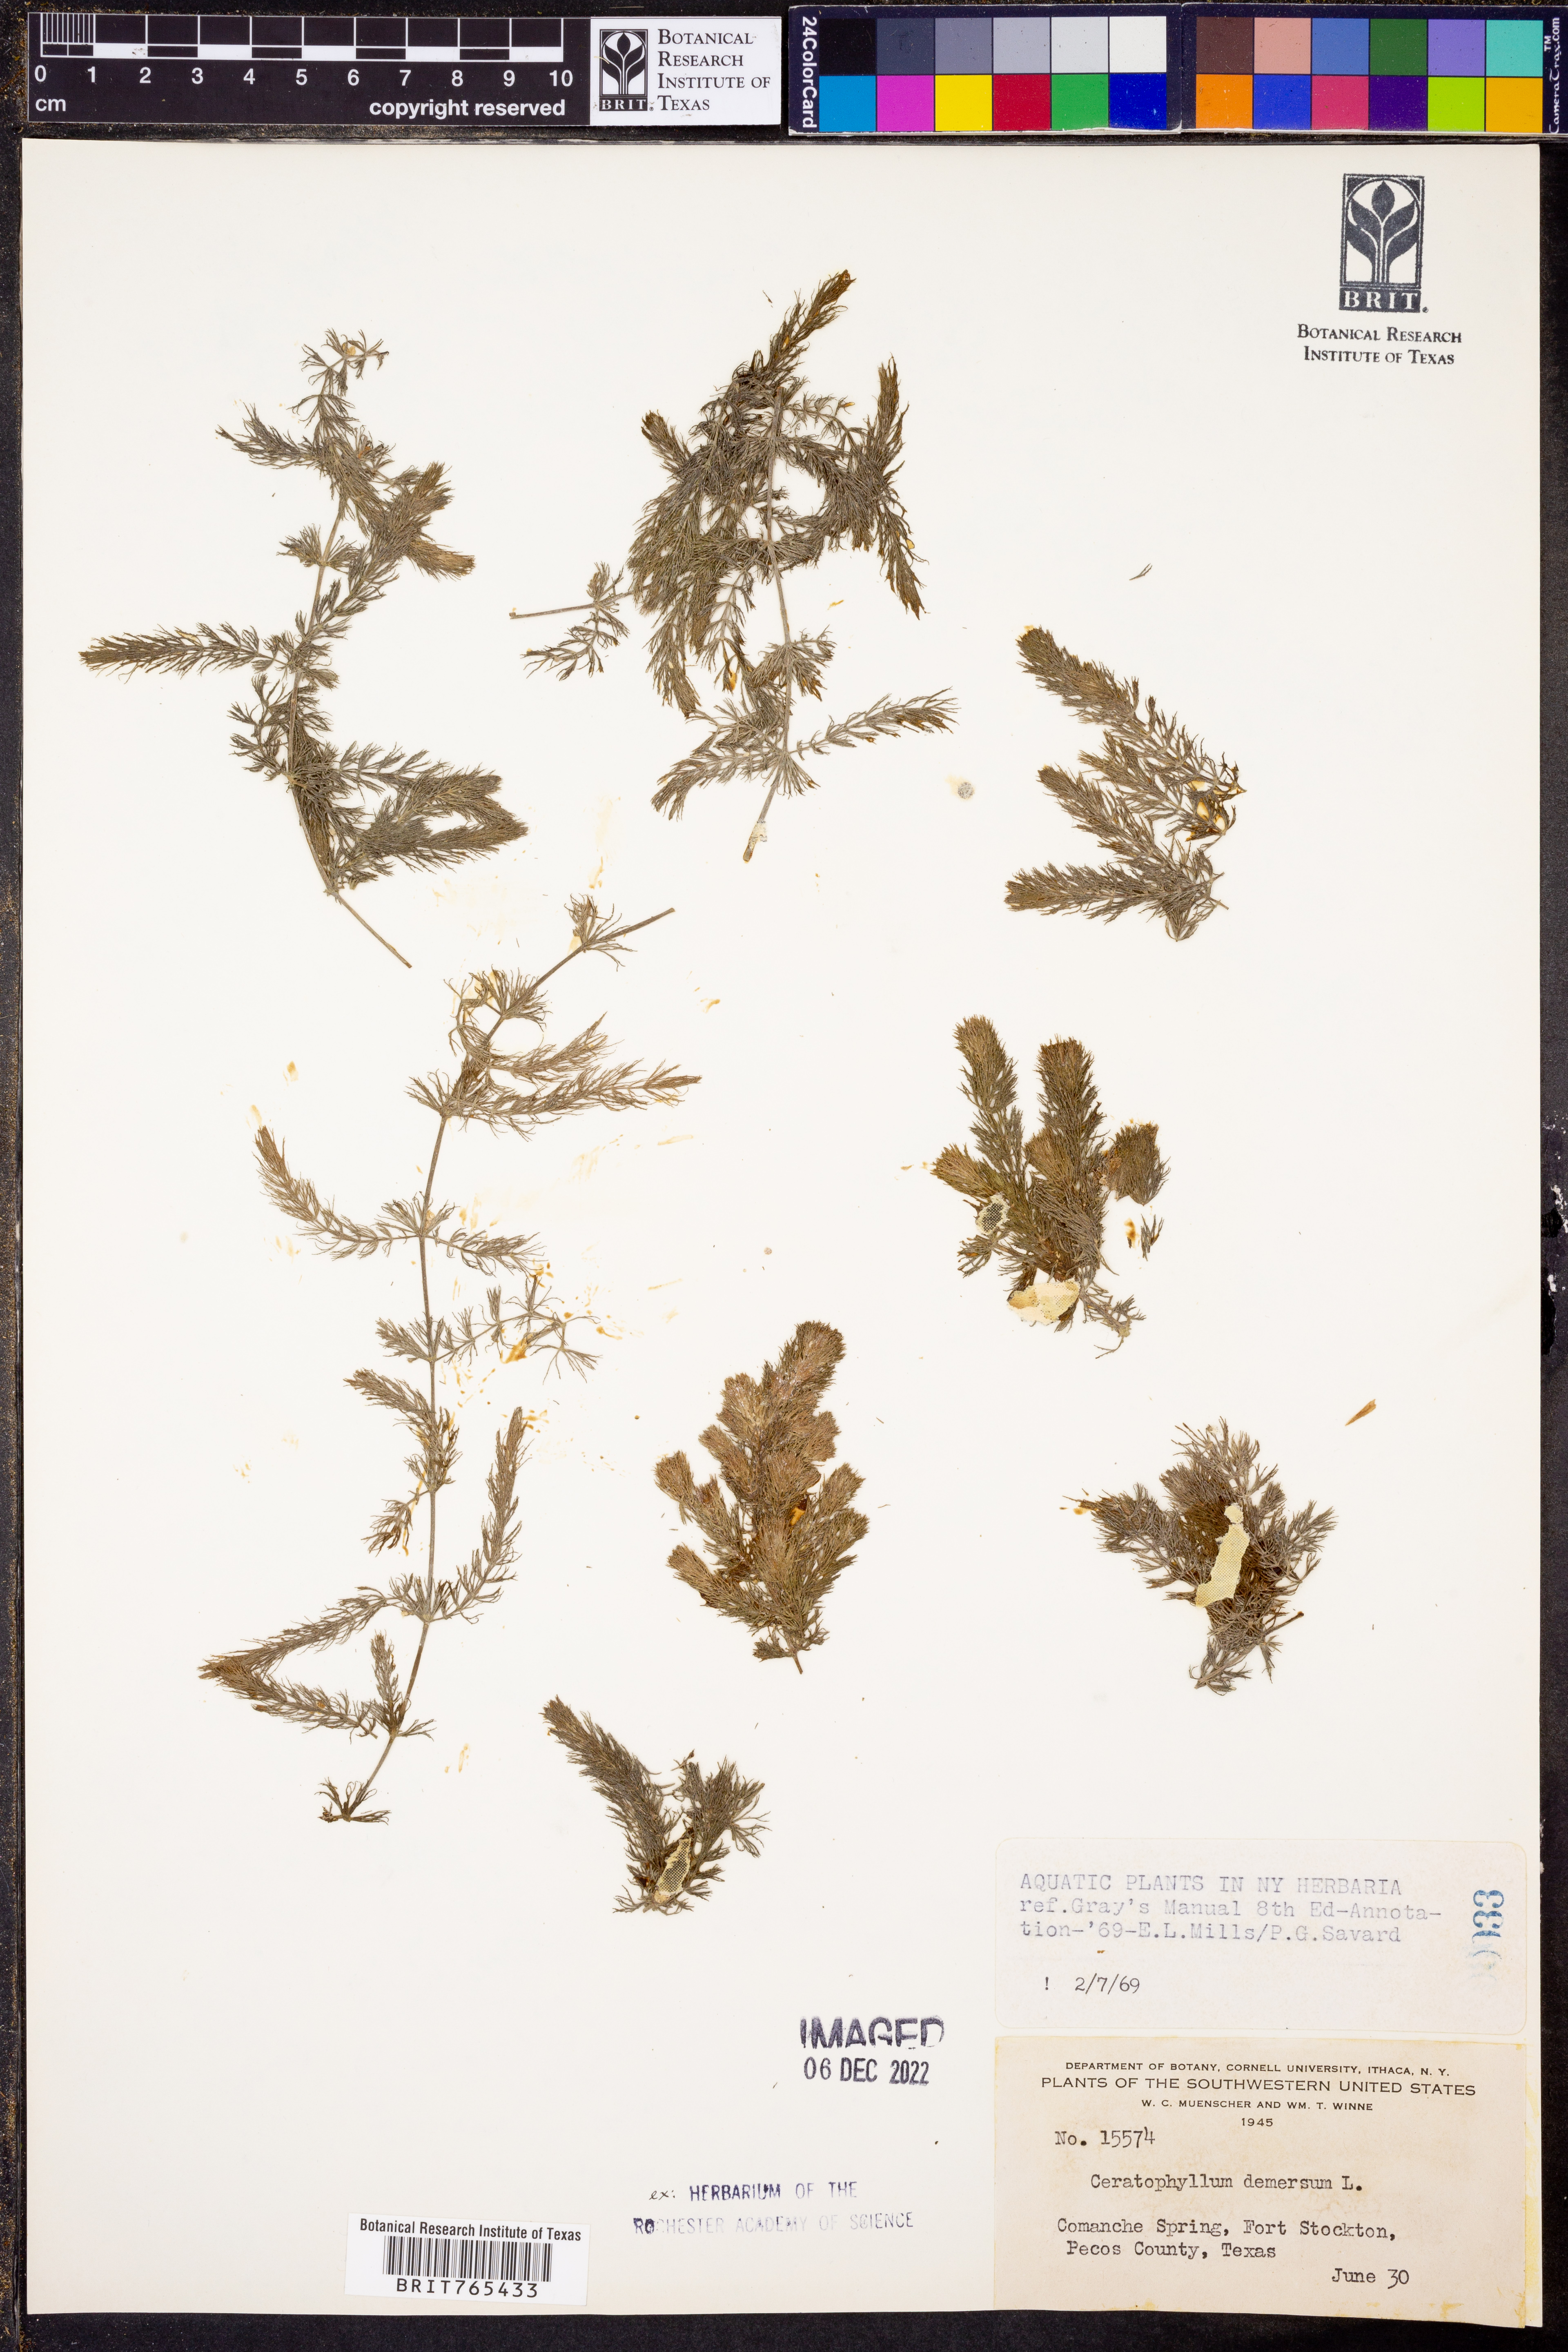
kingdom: Plantae
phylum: Tracheophyta
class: Magnoliopsida
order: Ceratophyllales
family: Ceratophyllaceae
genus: Ceratophyllum
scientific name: Ceratophyllum demersum
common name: Rigid hornwort
